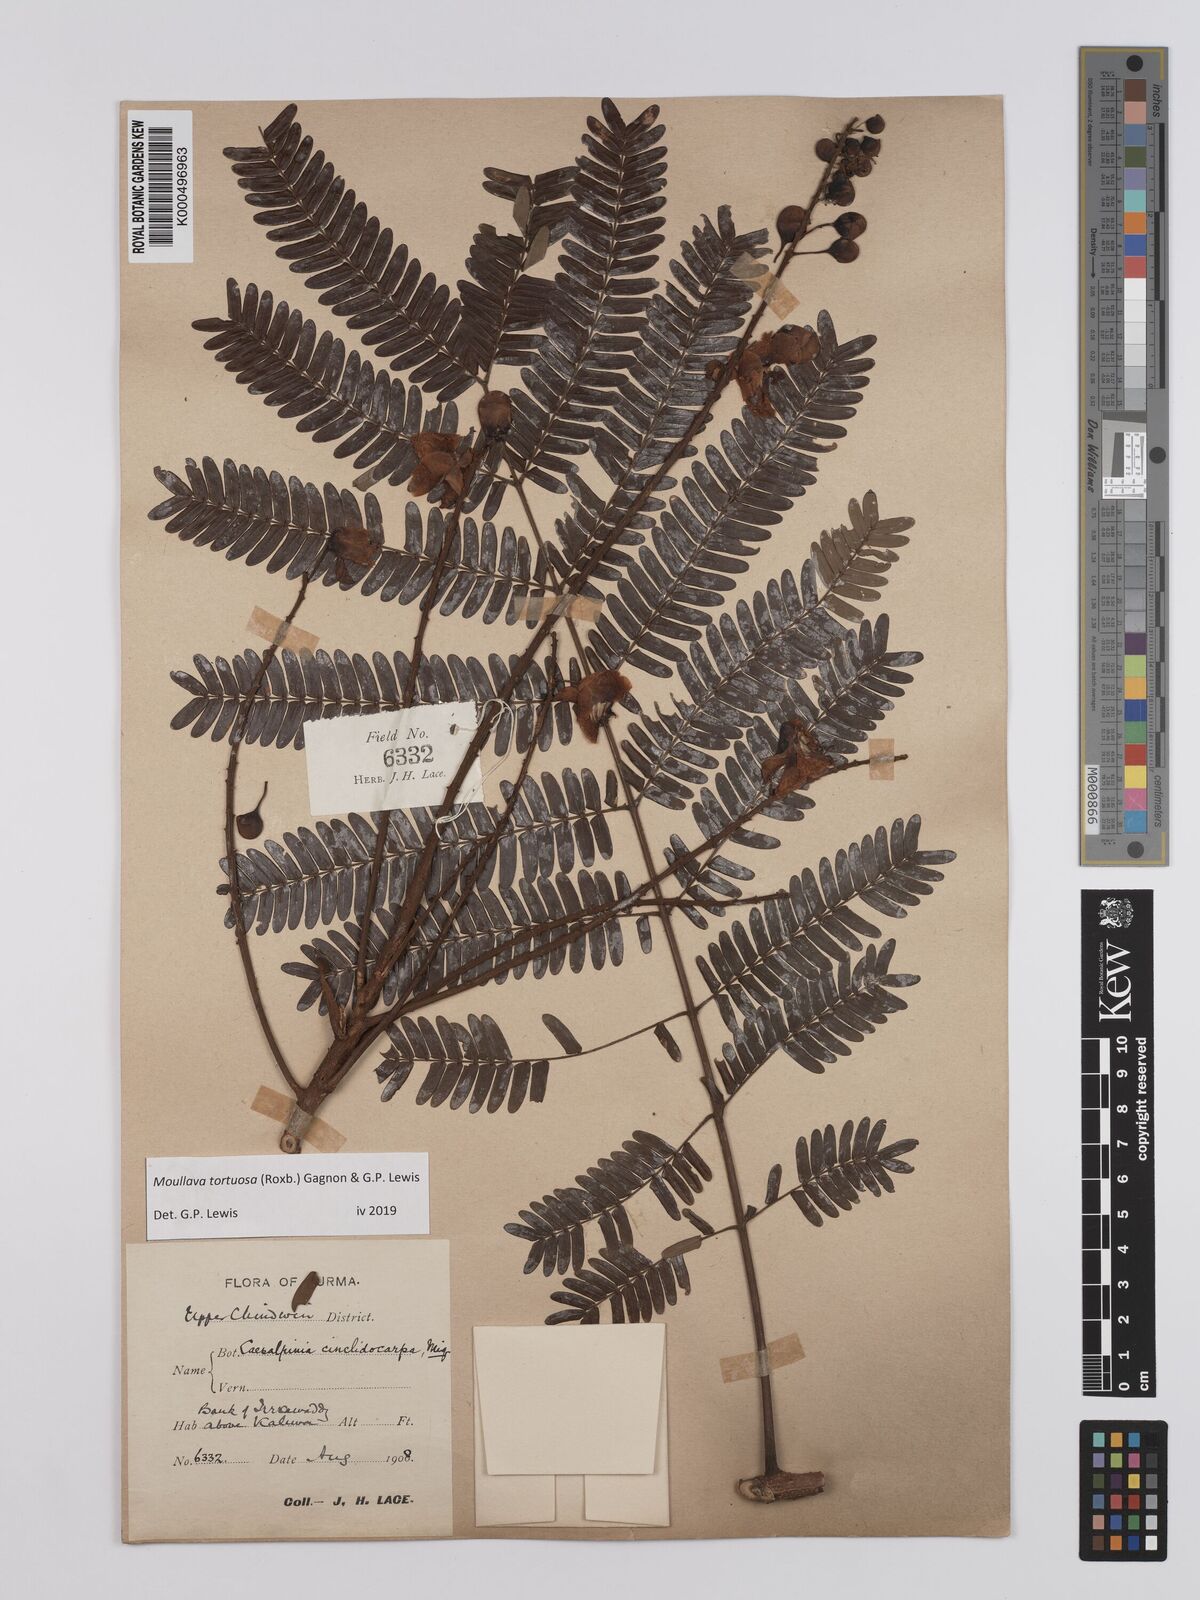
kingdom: Plantae
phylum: Tracheophyta
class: Magnoliopsida
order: Fabales
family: Fabaceae
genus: Moullava
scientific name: Moullava tortuosa
